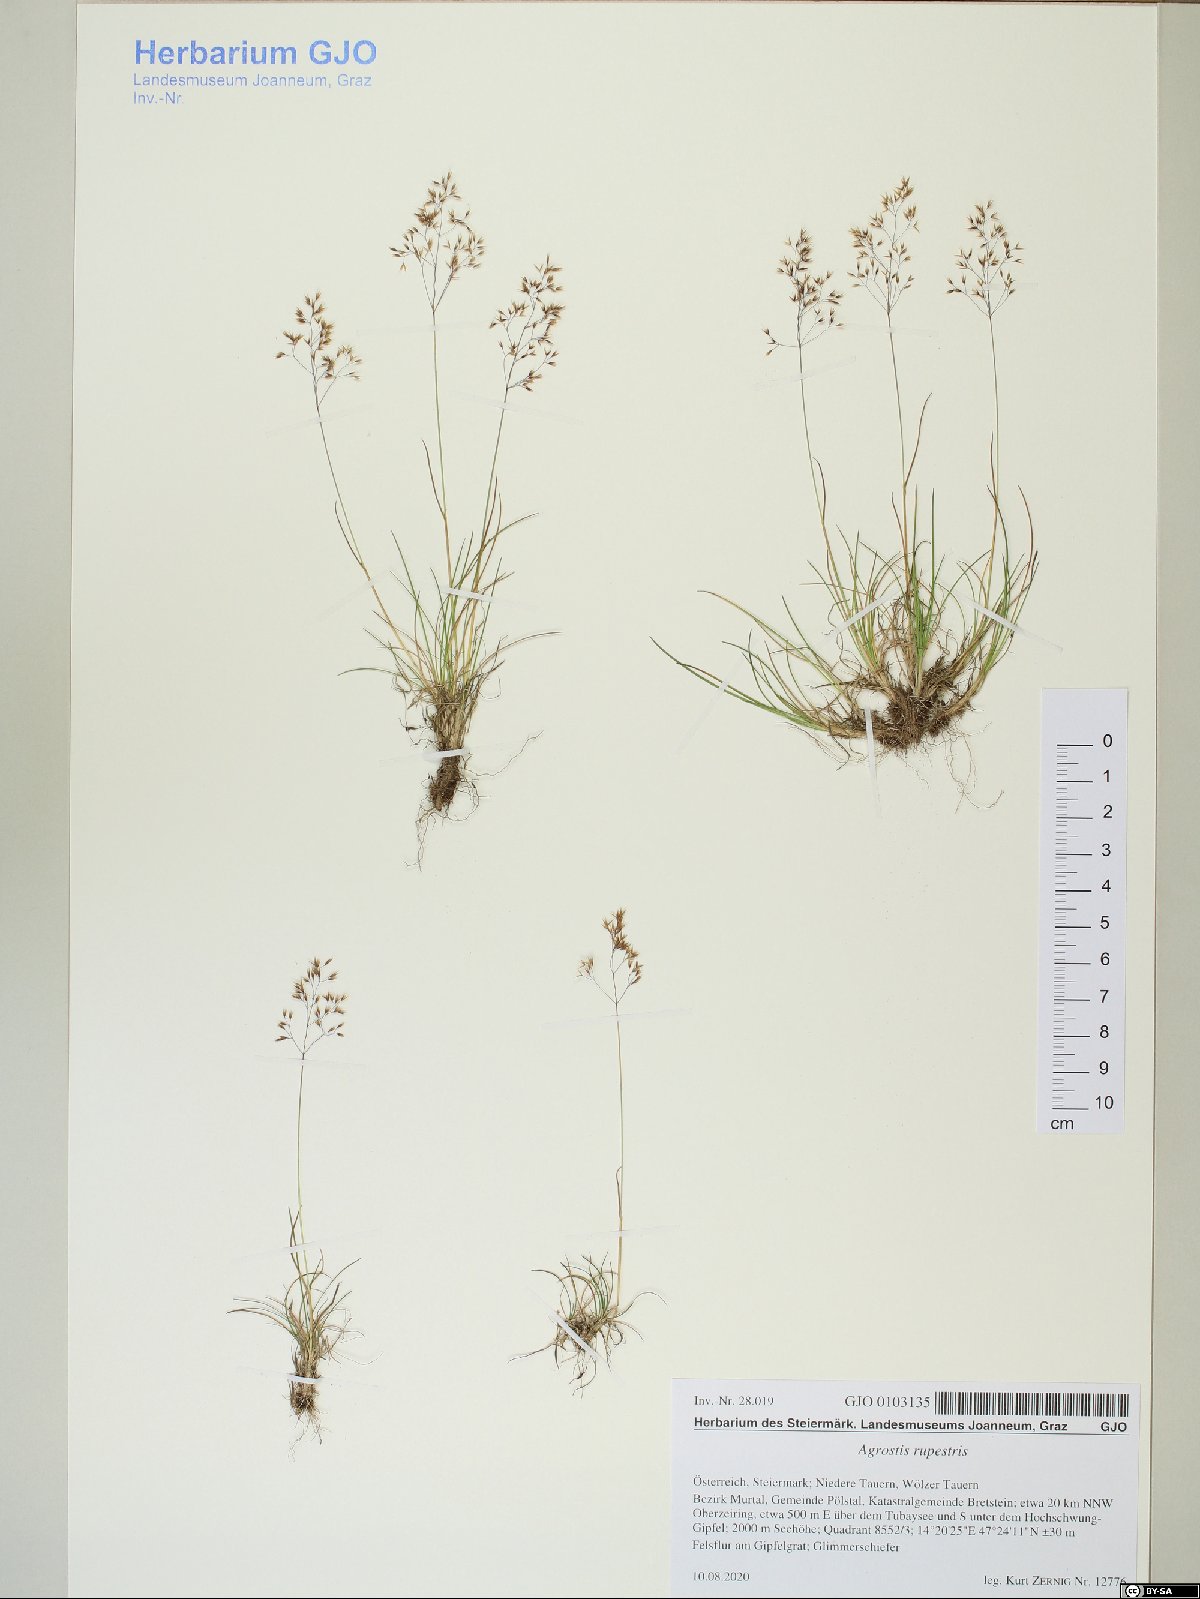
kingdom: Plantae
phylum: Tracheophyta
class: Liliopsida
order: Poales
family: Poaceae
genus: Agrostis
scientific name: Agrostis rupestris
